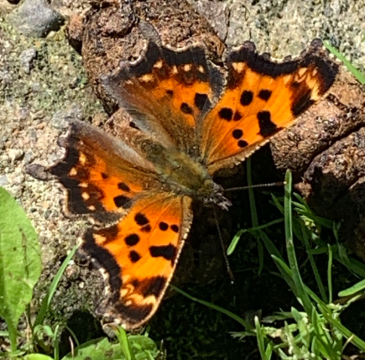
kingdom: Animalia
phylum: Arthropoda
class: Insecta
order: Lepidoptera
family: Nymphalidae
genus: Polygonia
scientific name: Polygonia faunus
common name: Green Comma
